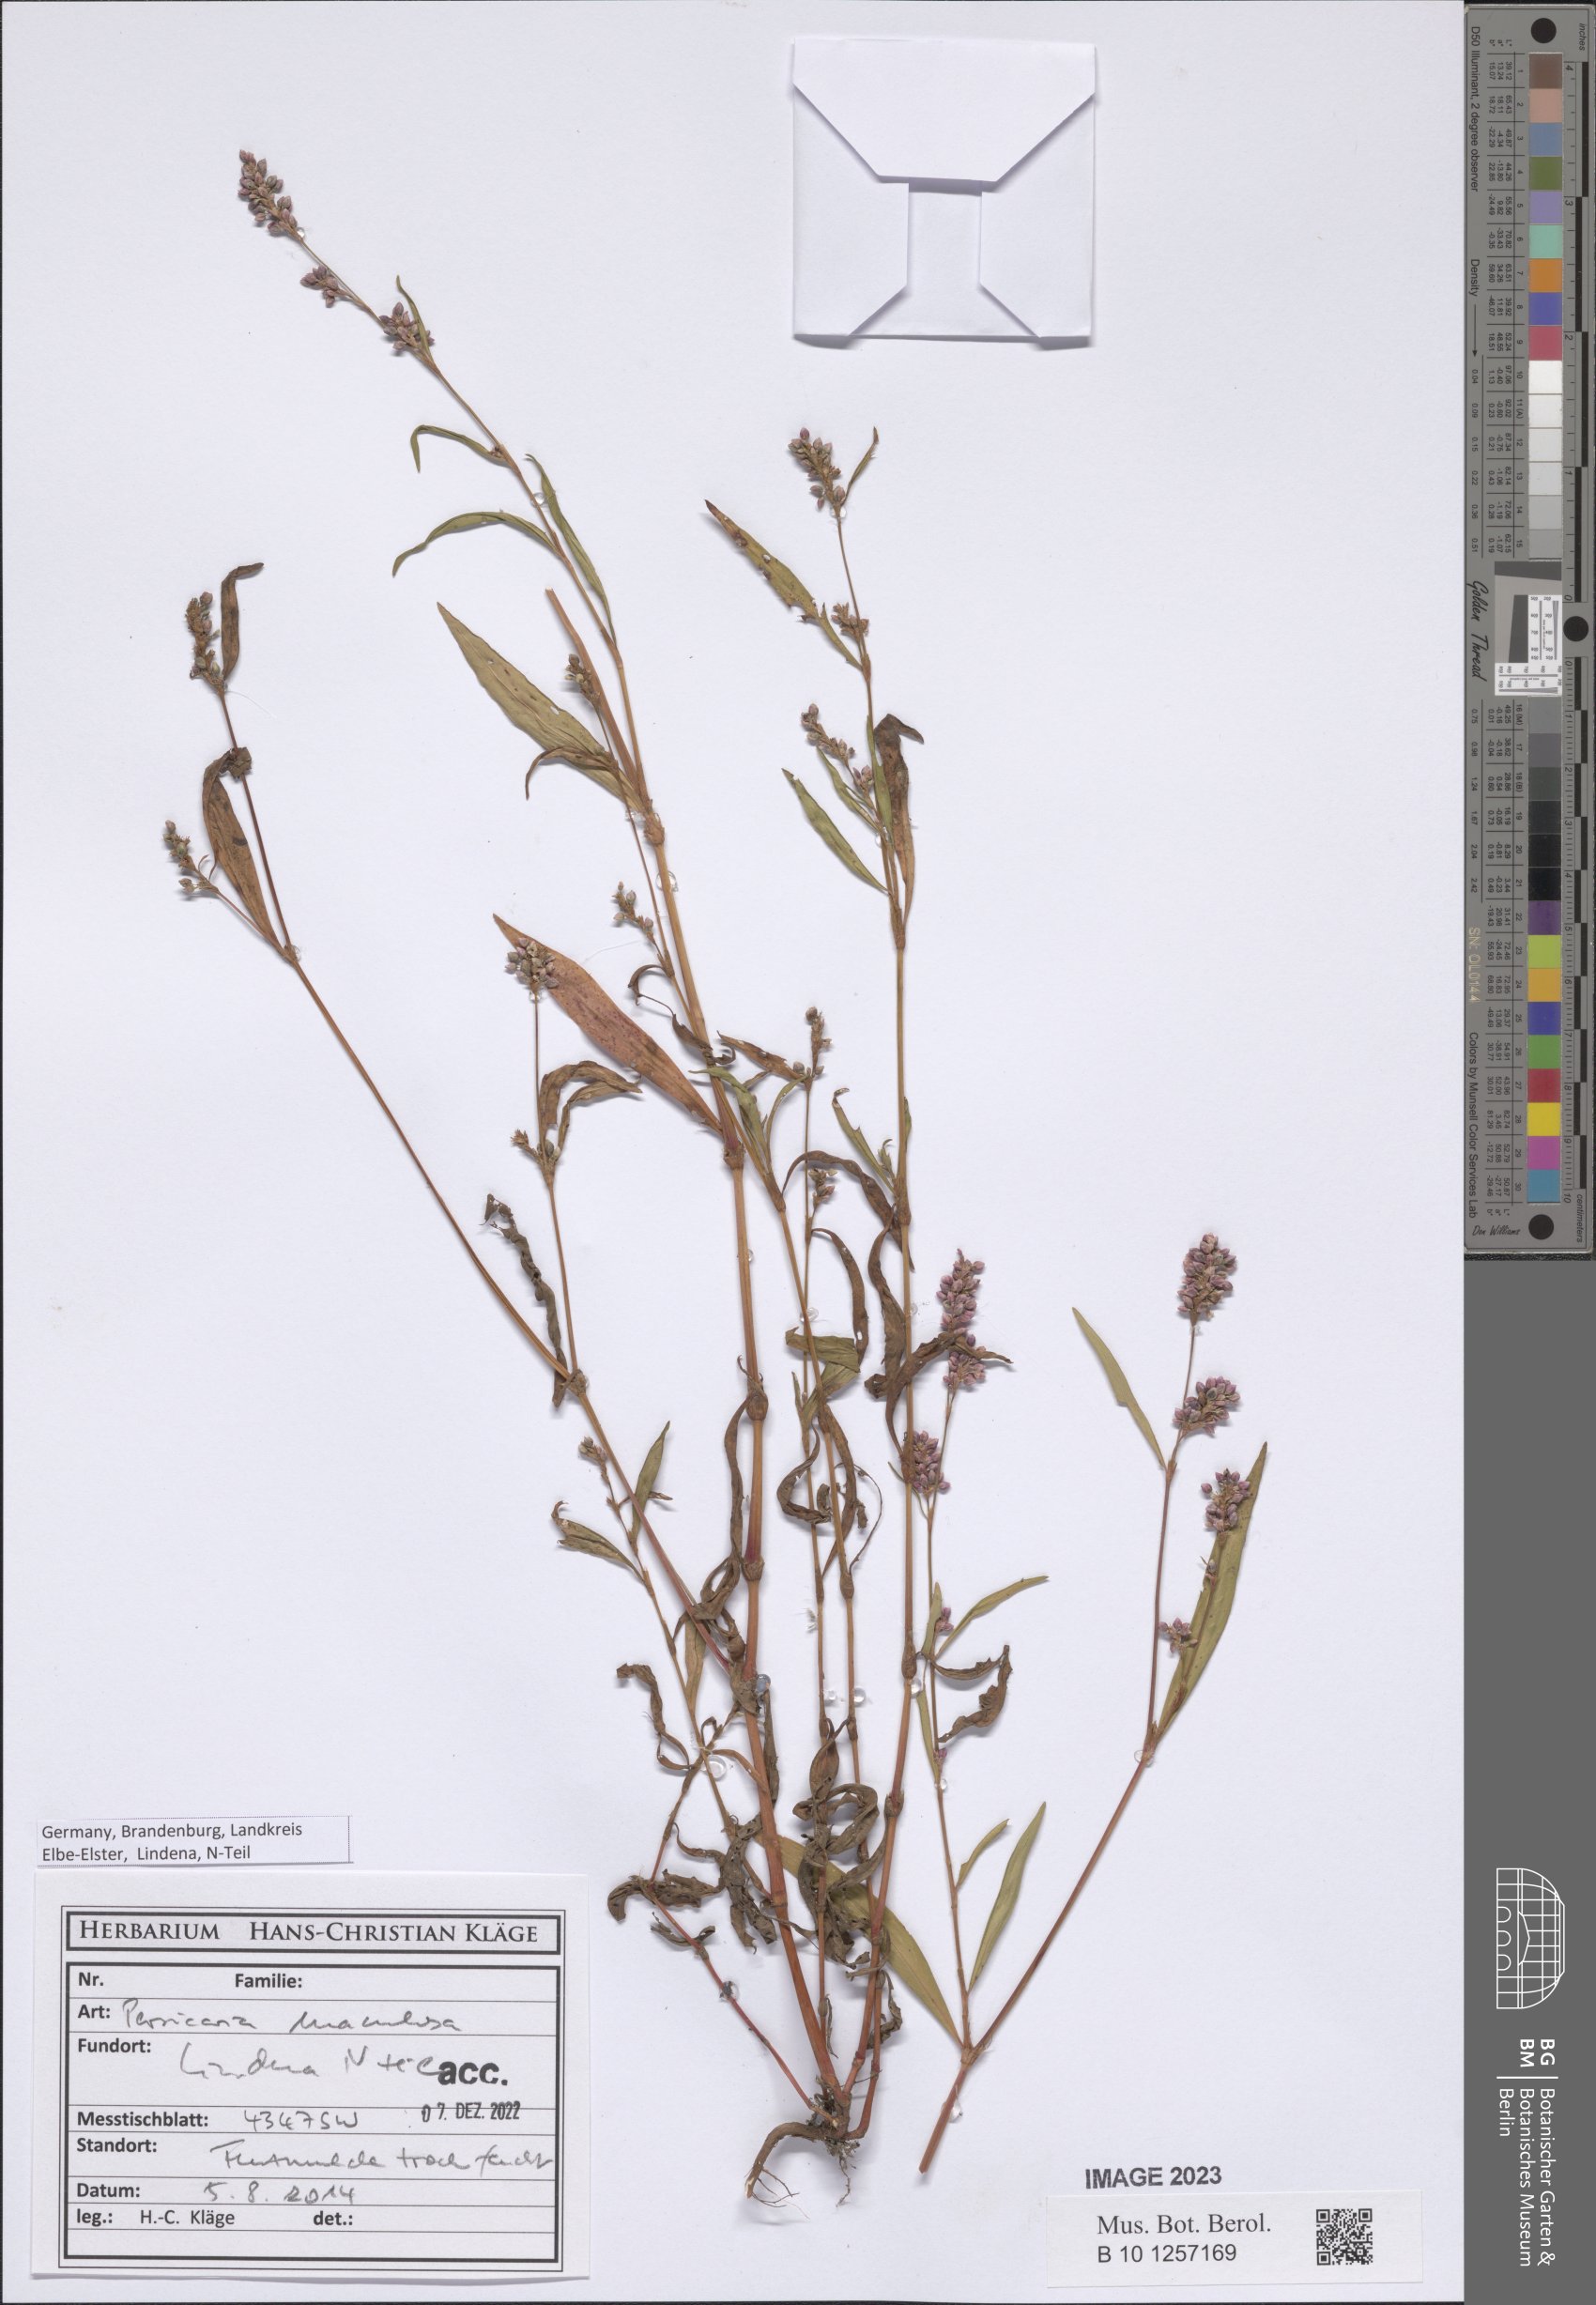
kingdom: Plantae
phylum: Tracheophyta
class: Magnoliopsida
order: Caryophyllales
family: Polygonaceae
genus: Persicaria
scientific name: Persicaria maculosa
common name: Redshank
